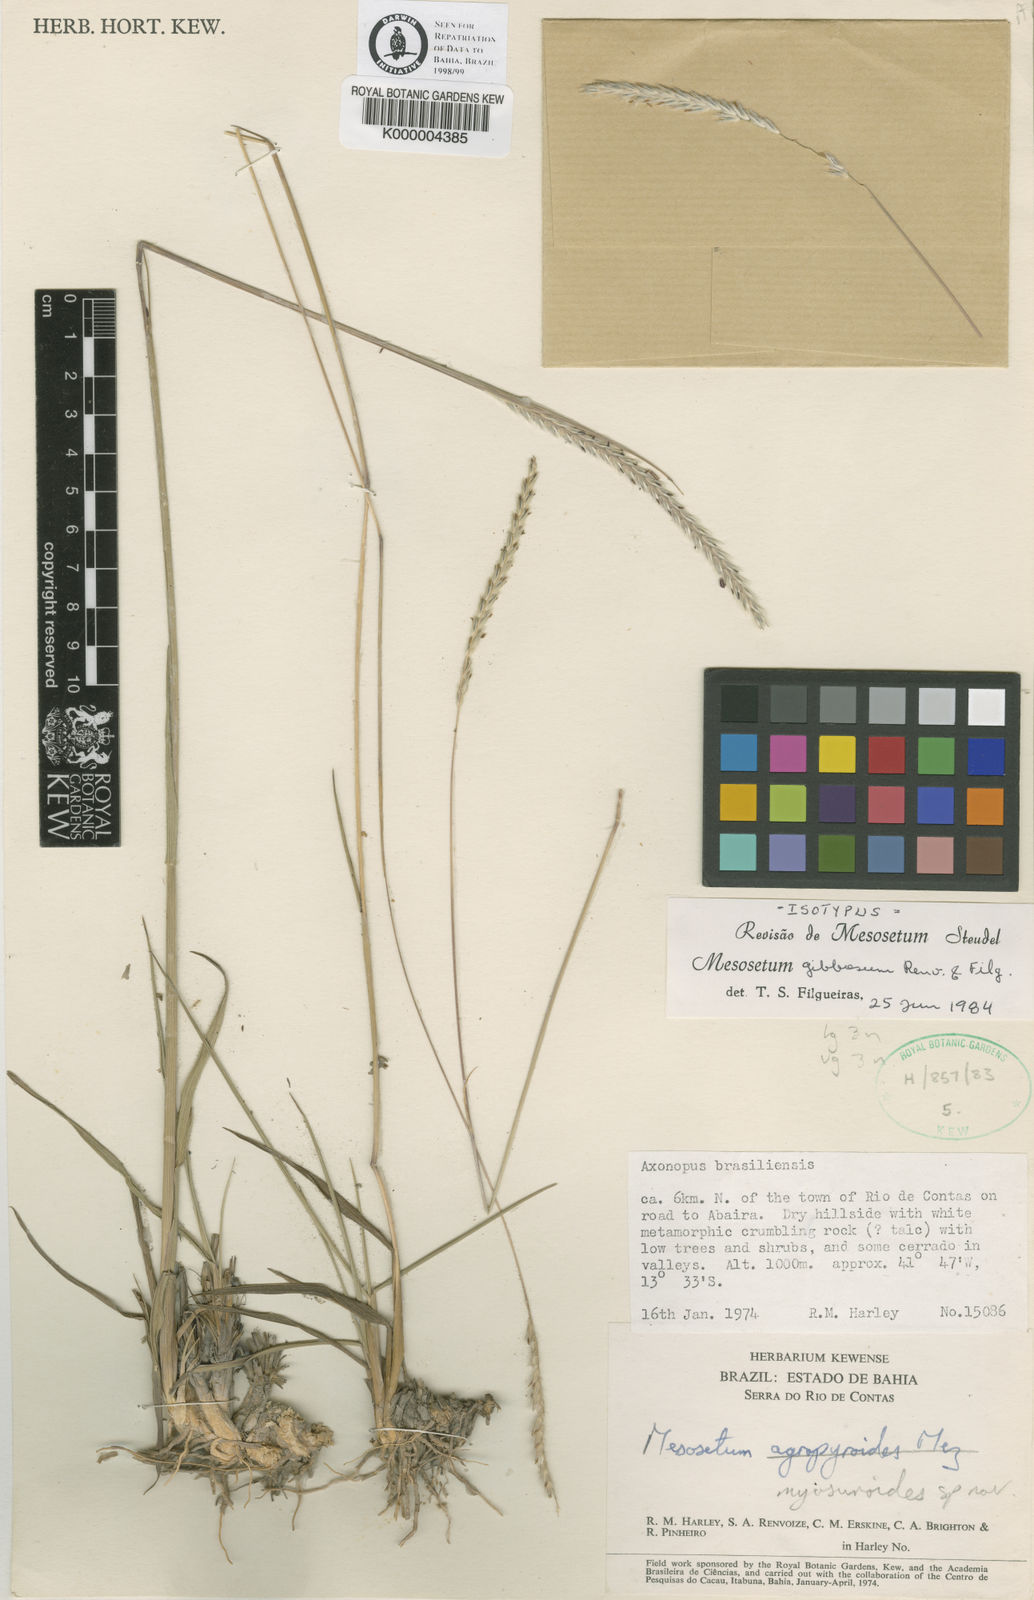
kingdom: Plantae
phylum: Tracheophyta
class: Liliopsida
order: Poales
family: Poaceae
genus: Mesosetum
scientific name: Mesosetum gibbosum
